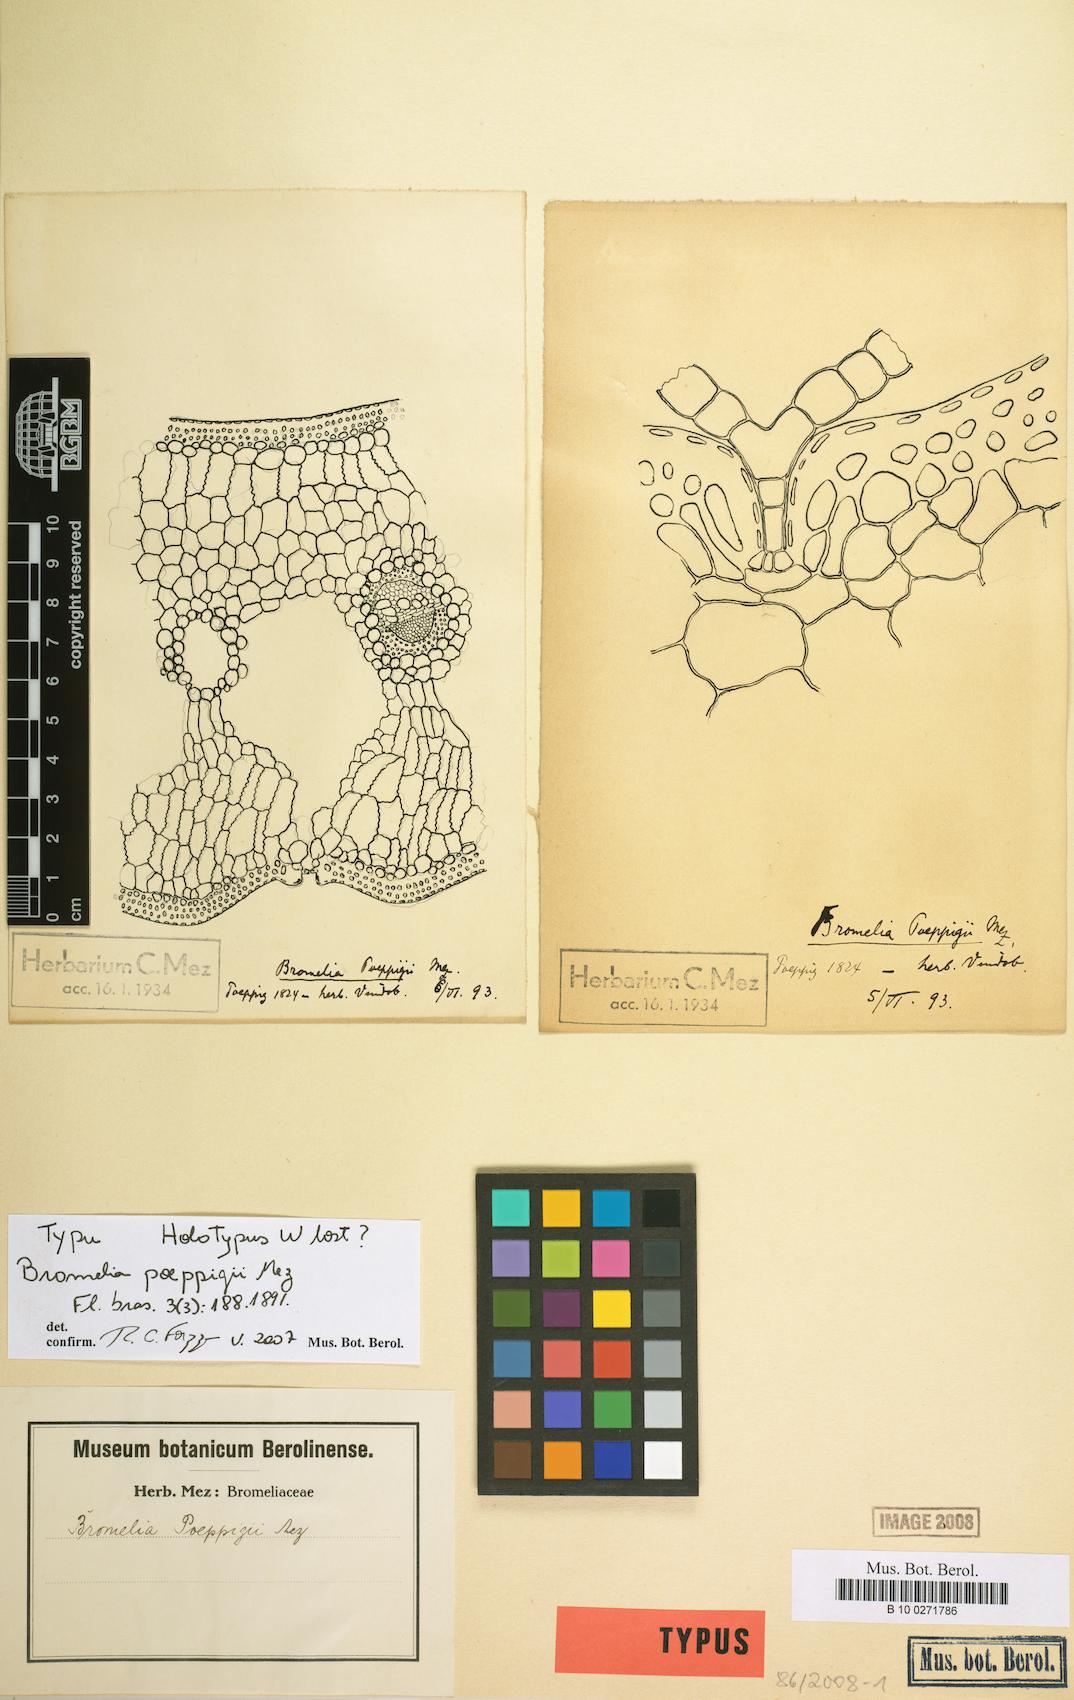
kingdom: Plantae
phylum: Tracheophyta
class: Liliopsida
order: Poales
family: Bromeliaceae
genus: Bromelia
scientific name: Bromelia poeppigii
